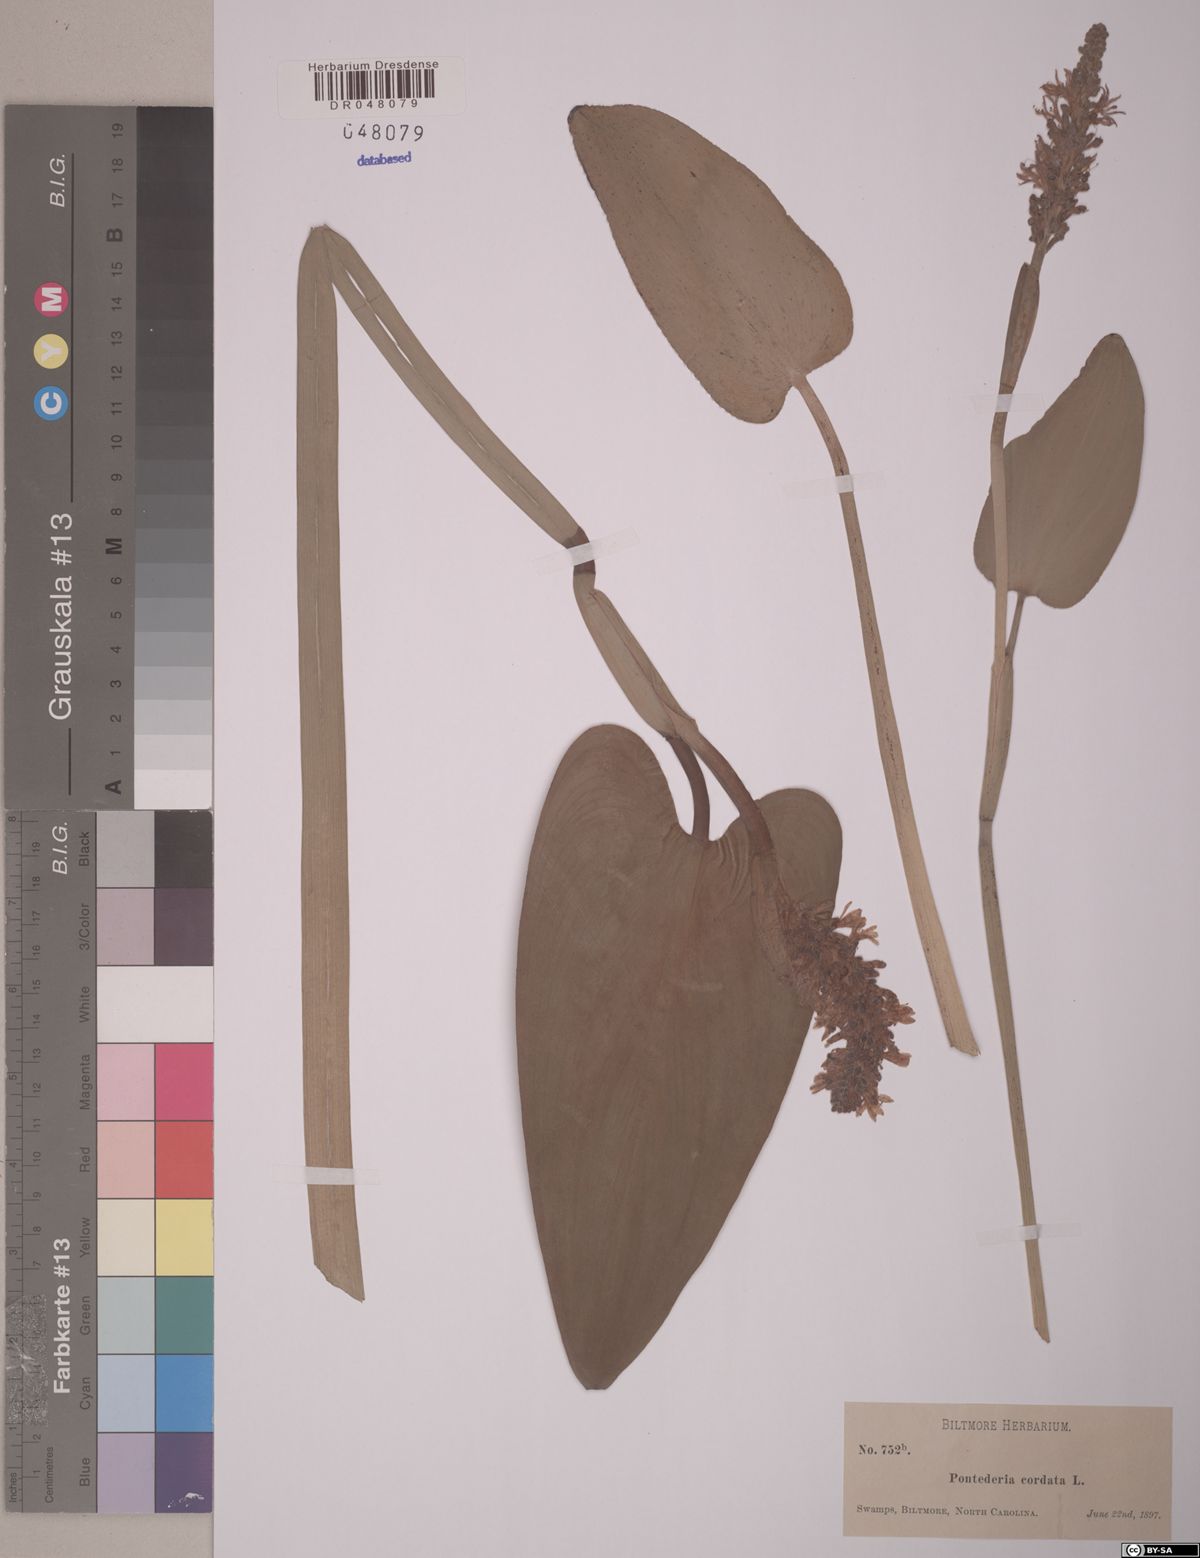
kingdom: Plantae
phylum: Tracheophyta
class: Liliopsida
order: Commelinales
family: Pontederiaceae
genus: Pontederia
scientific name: Pontederia cordata
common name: Pickerelweed
